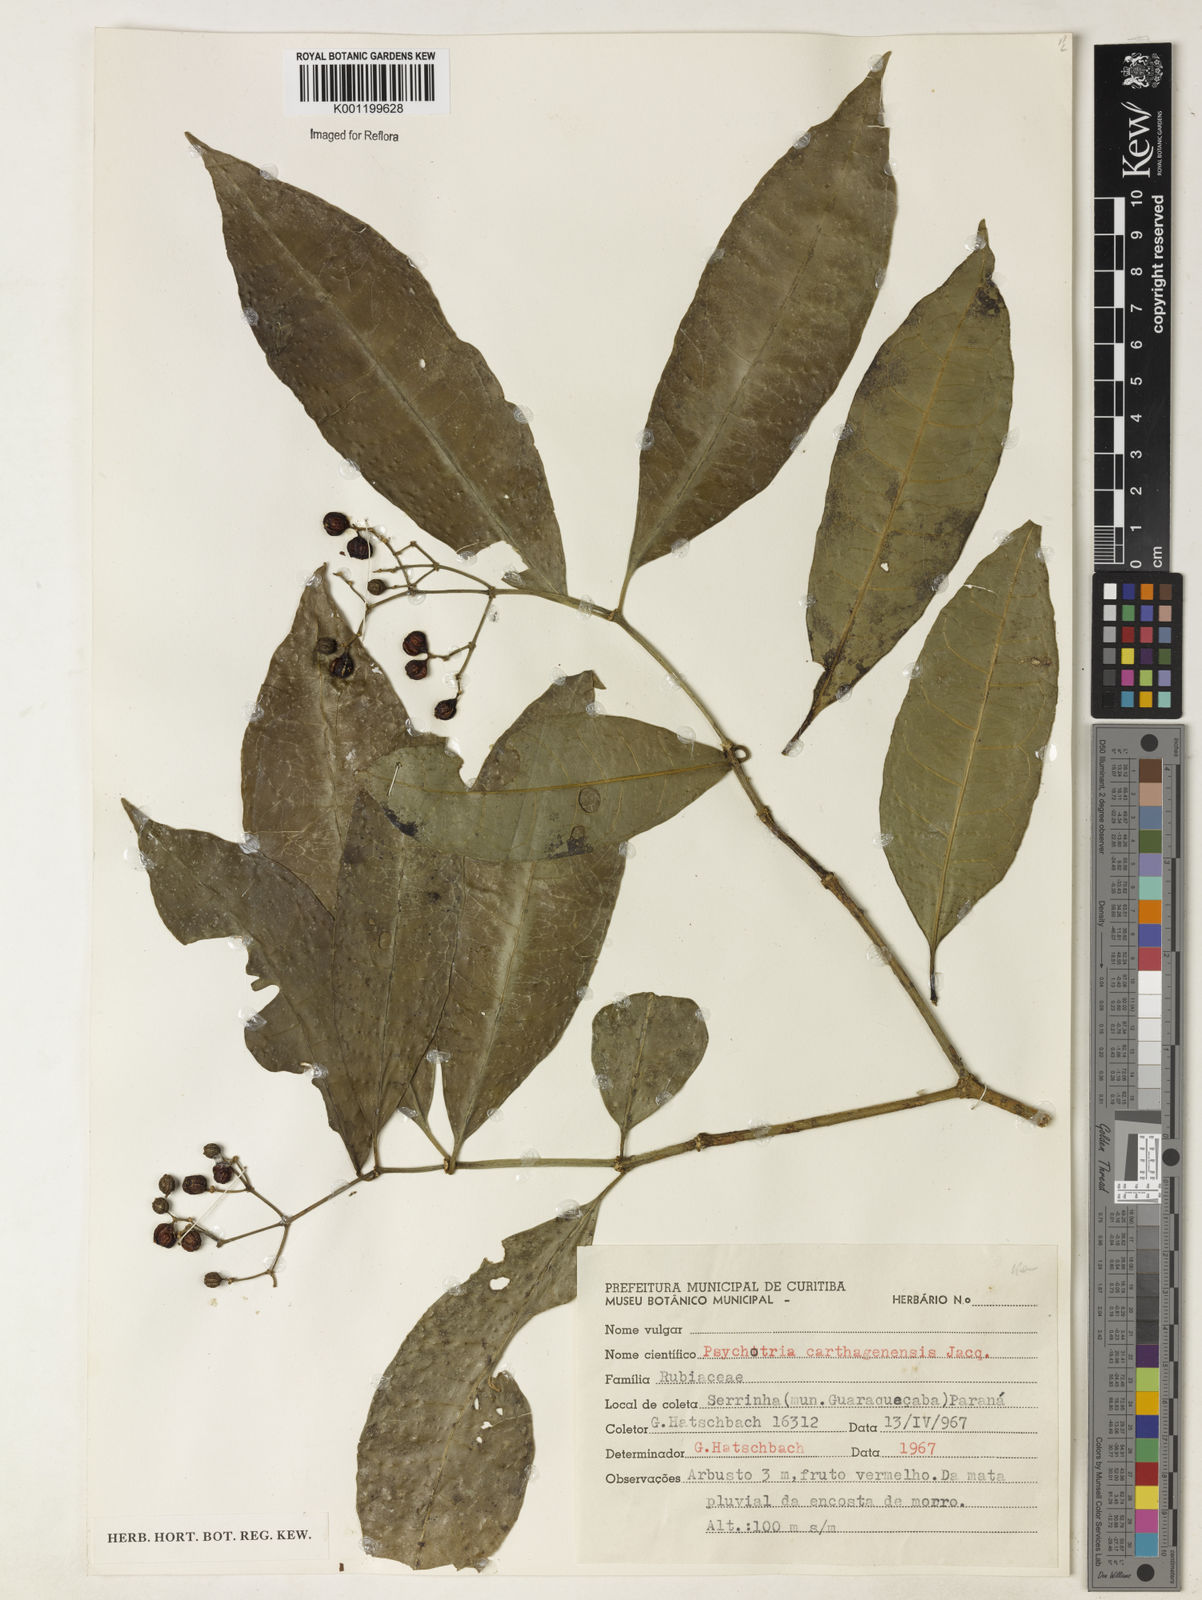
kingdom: Plantae
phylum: Tracheophyta
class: Magnoliopsida
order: Gentianales
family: Rubiaceae
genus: Psychotria
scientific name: Psychotria carthagenensis
